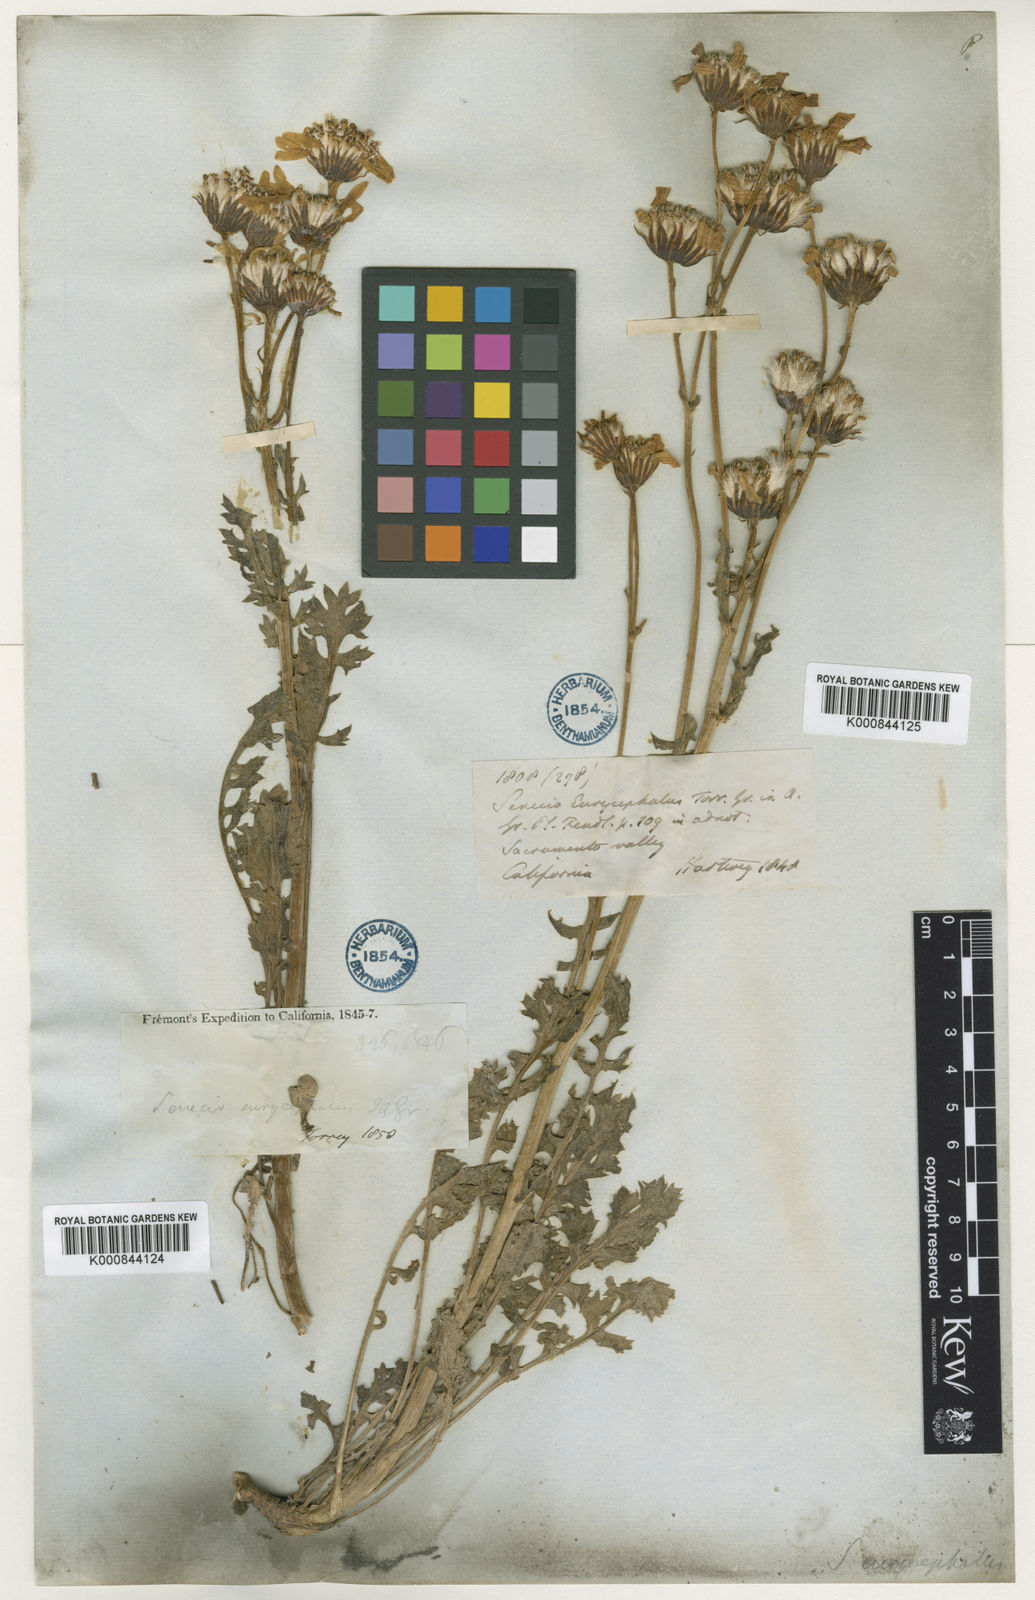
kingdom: Plantae
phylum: Tracheophyta
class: Magnoliopsida
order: Asterales
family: Asteraceae
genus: Packera
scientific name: Packera
